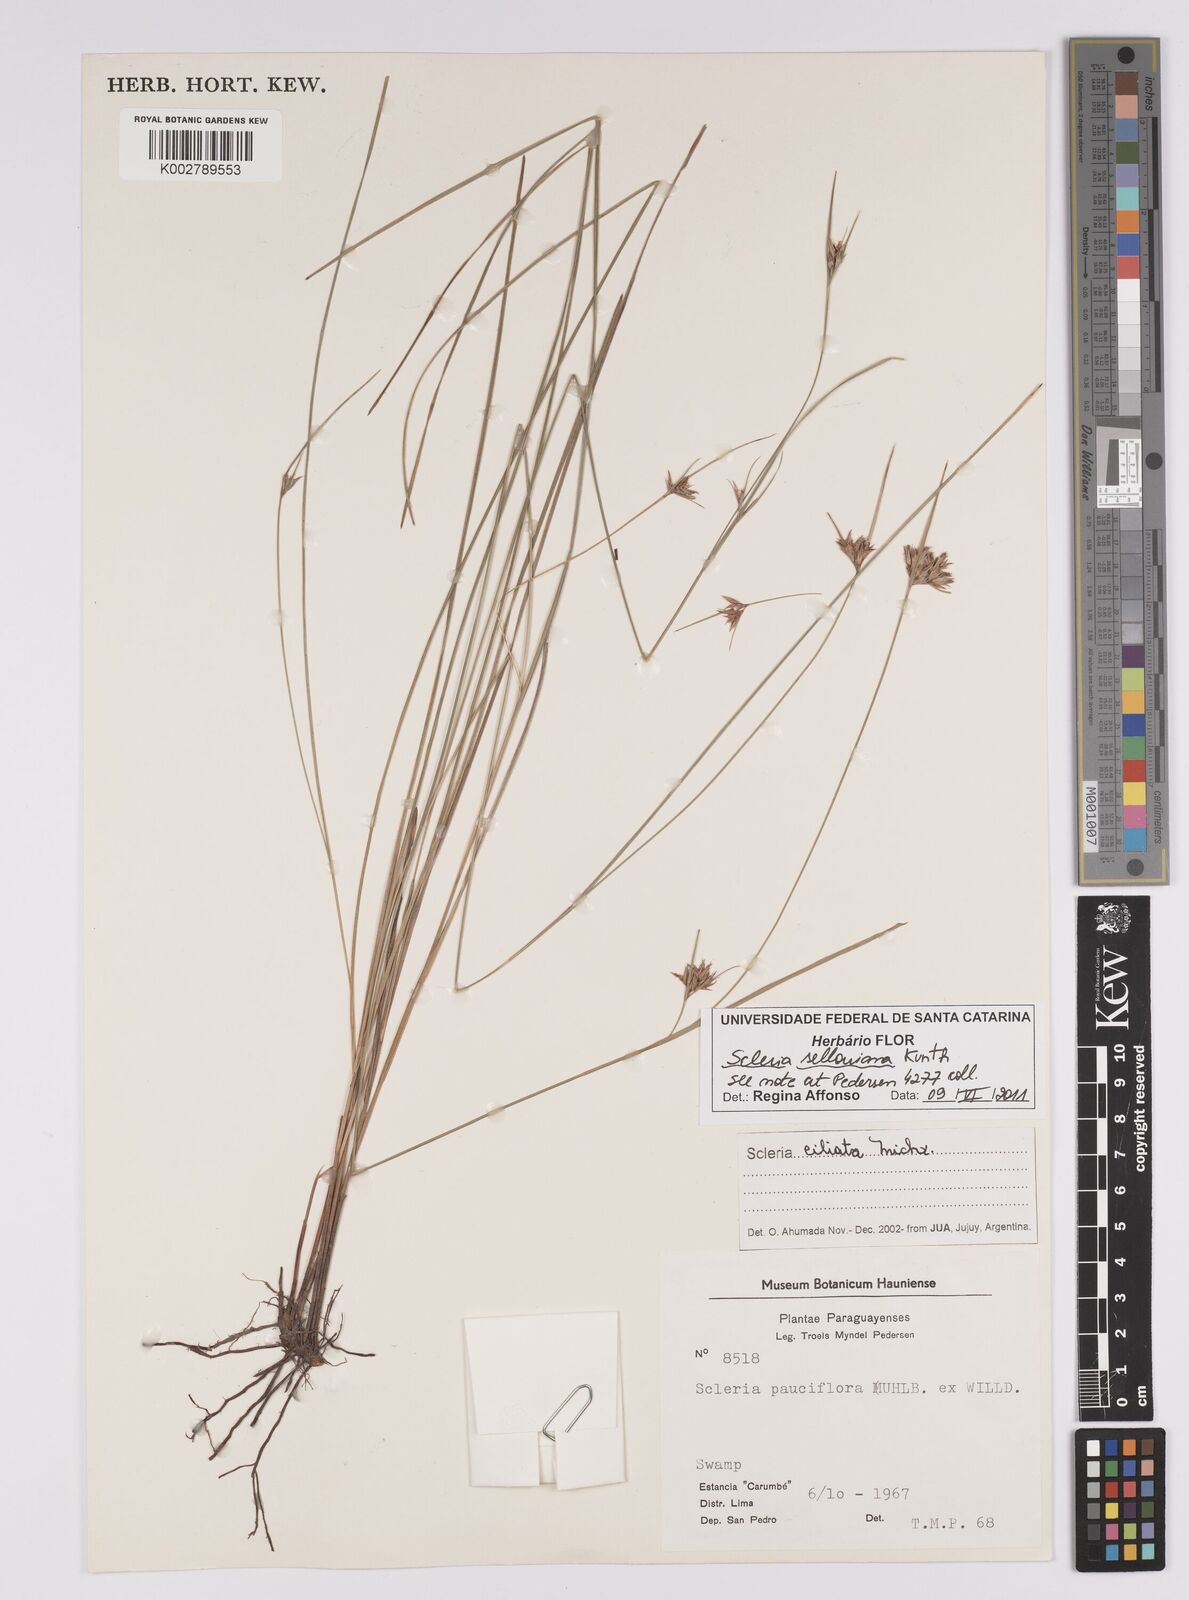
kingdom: Plantae
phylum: Tracheophyta
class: Liliopsida
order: Poales
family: Cyperaceae
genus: Scleria
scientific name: Scleria sellowiana
